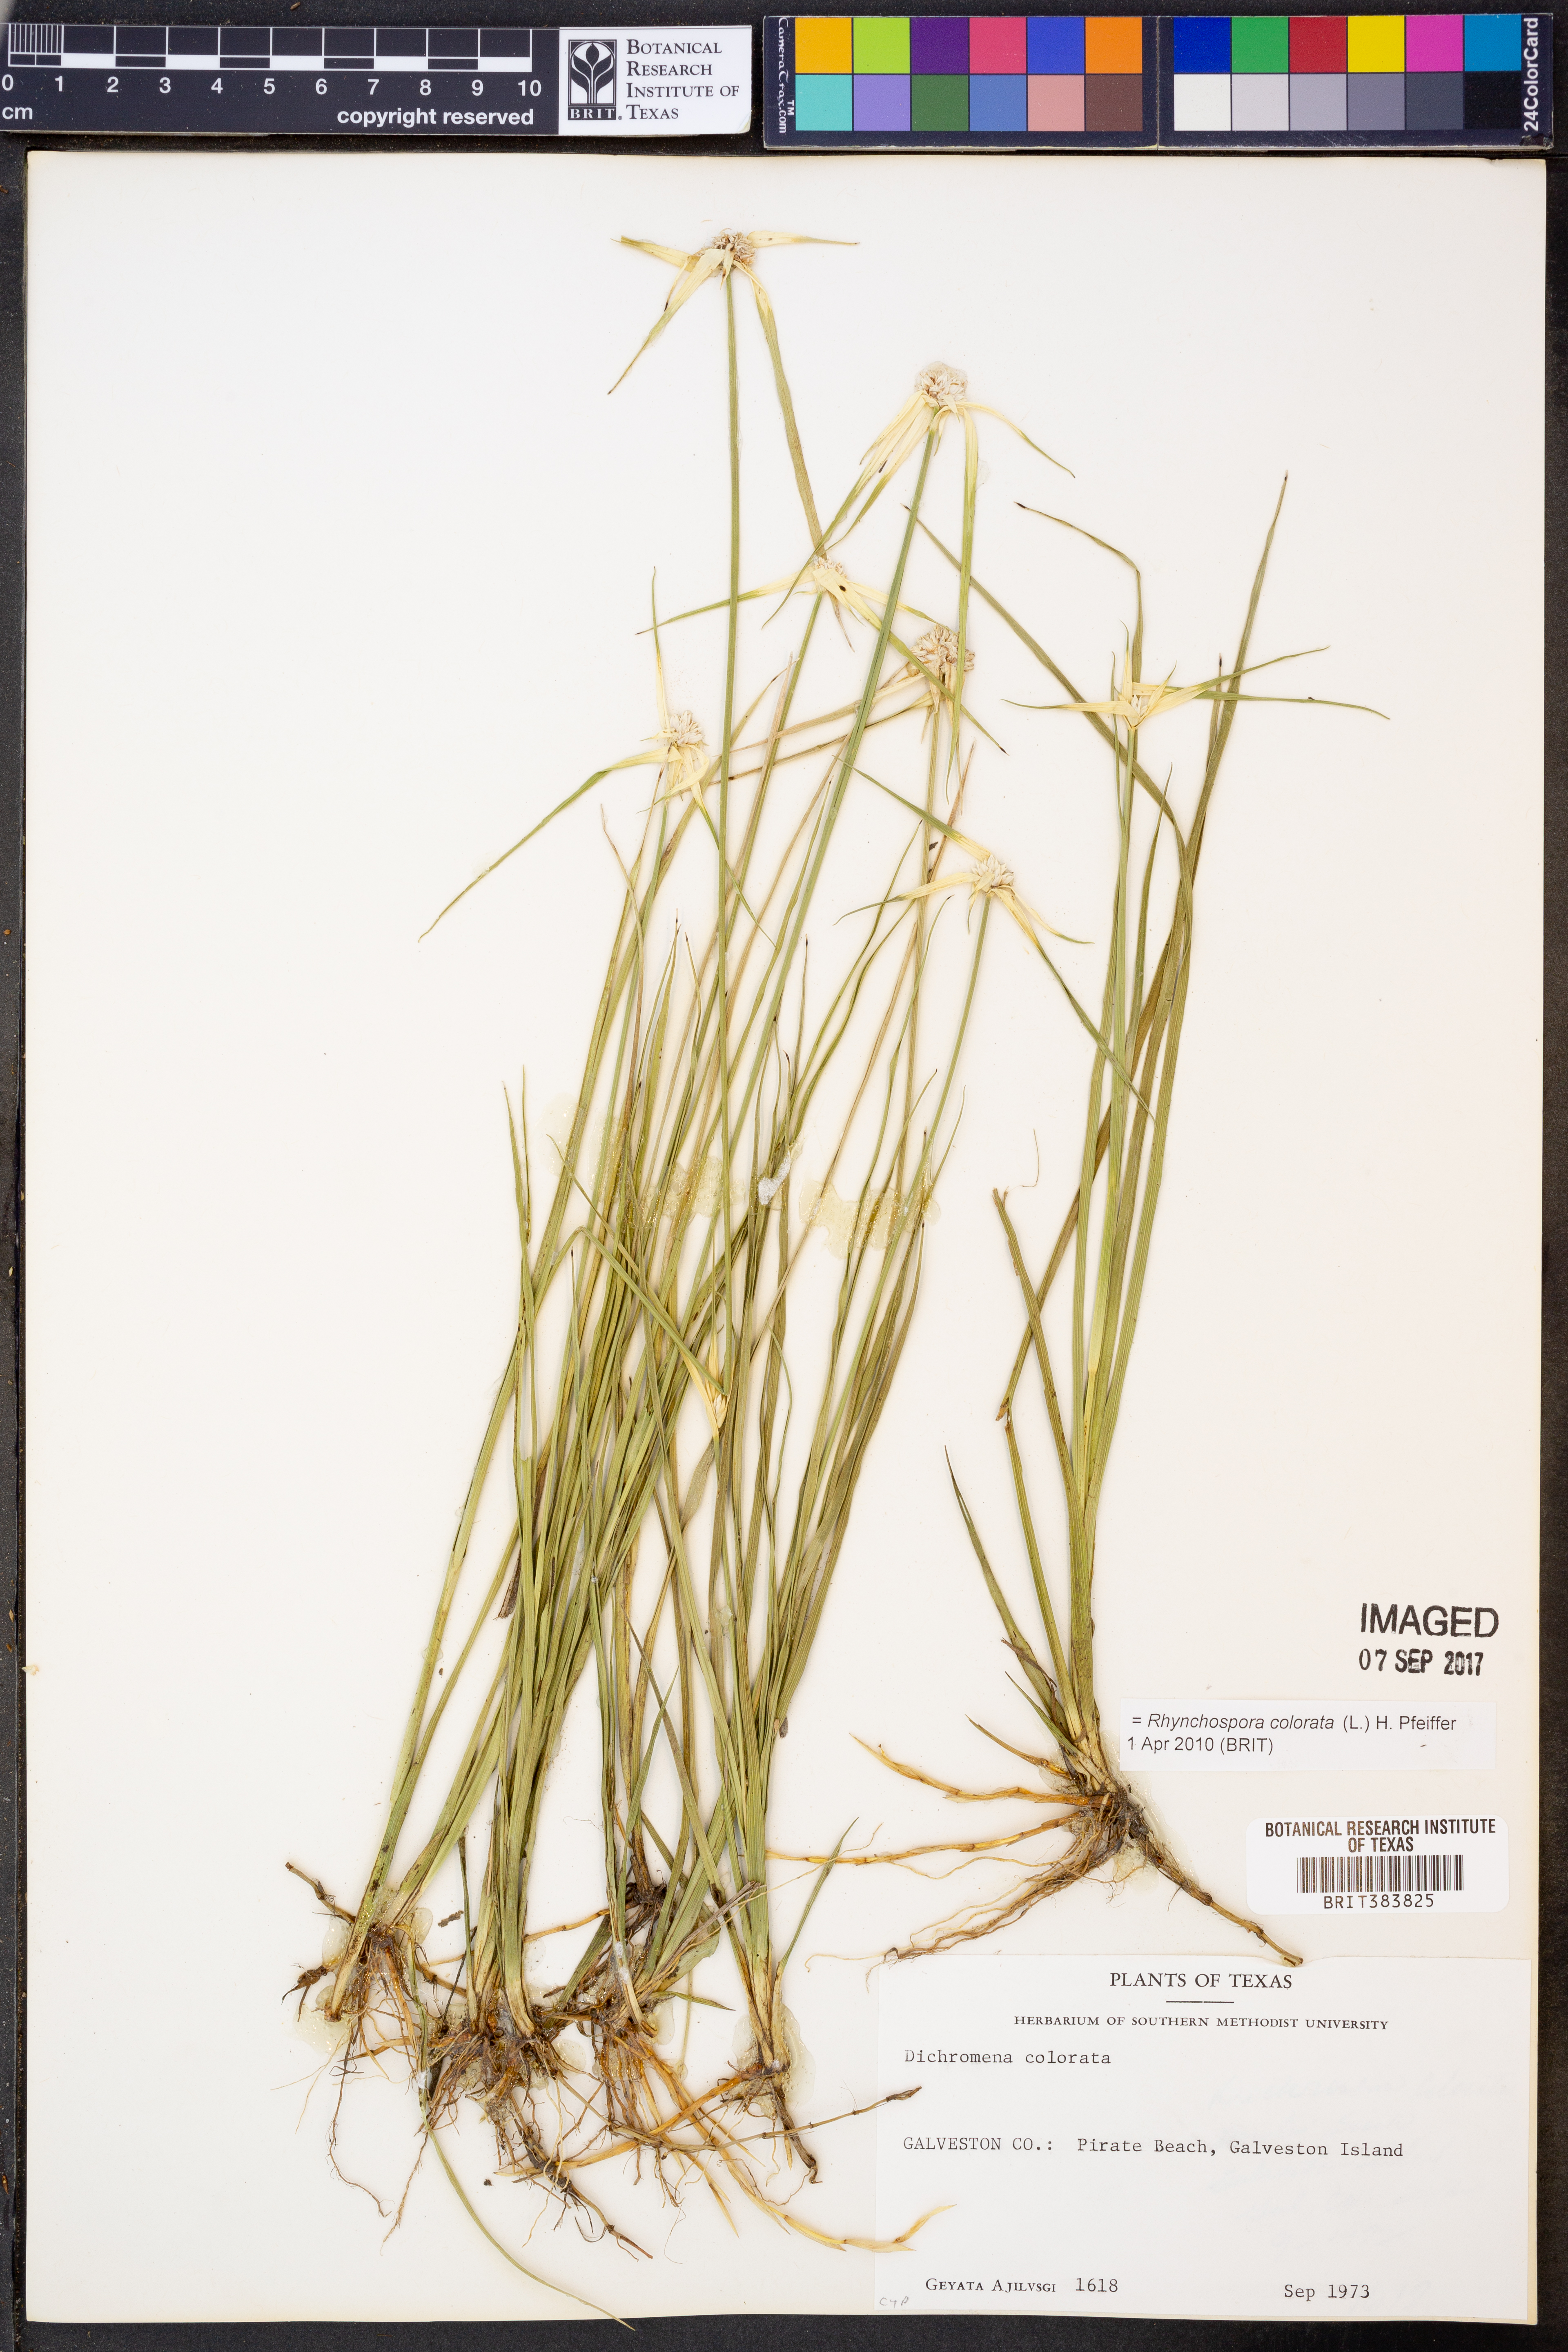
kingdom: Plantae
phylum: Tracheophyta
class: Liliopsida
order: Poales
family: Cyperaceae
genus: Rhynchospora
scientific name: Rhynchospora colorata
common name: Star sedge
